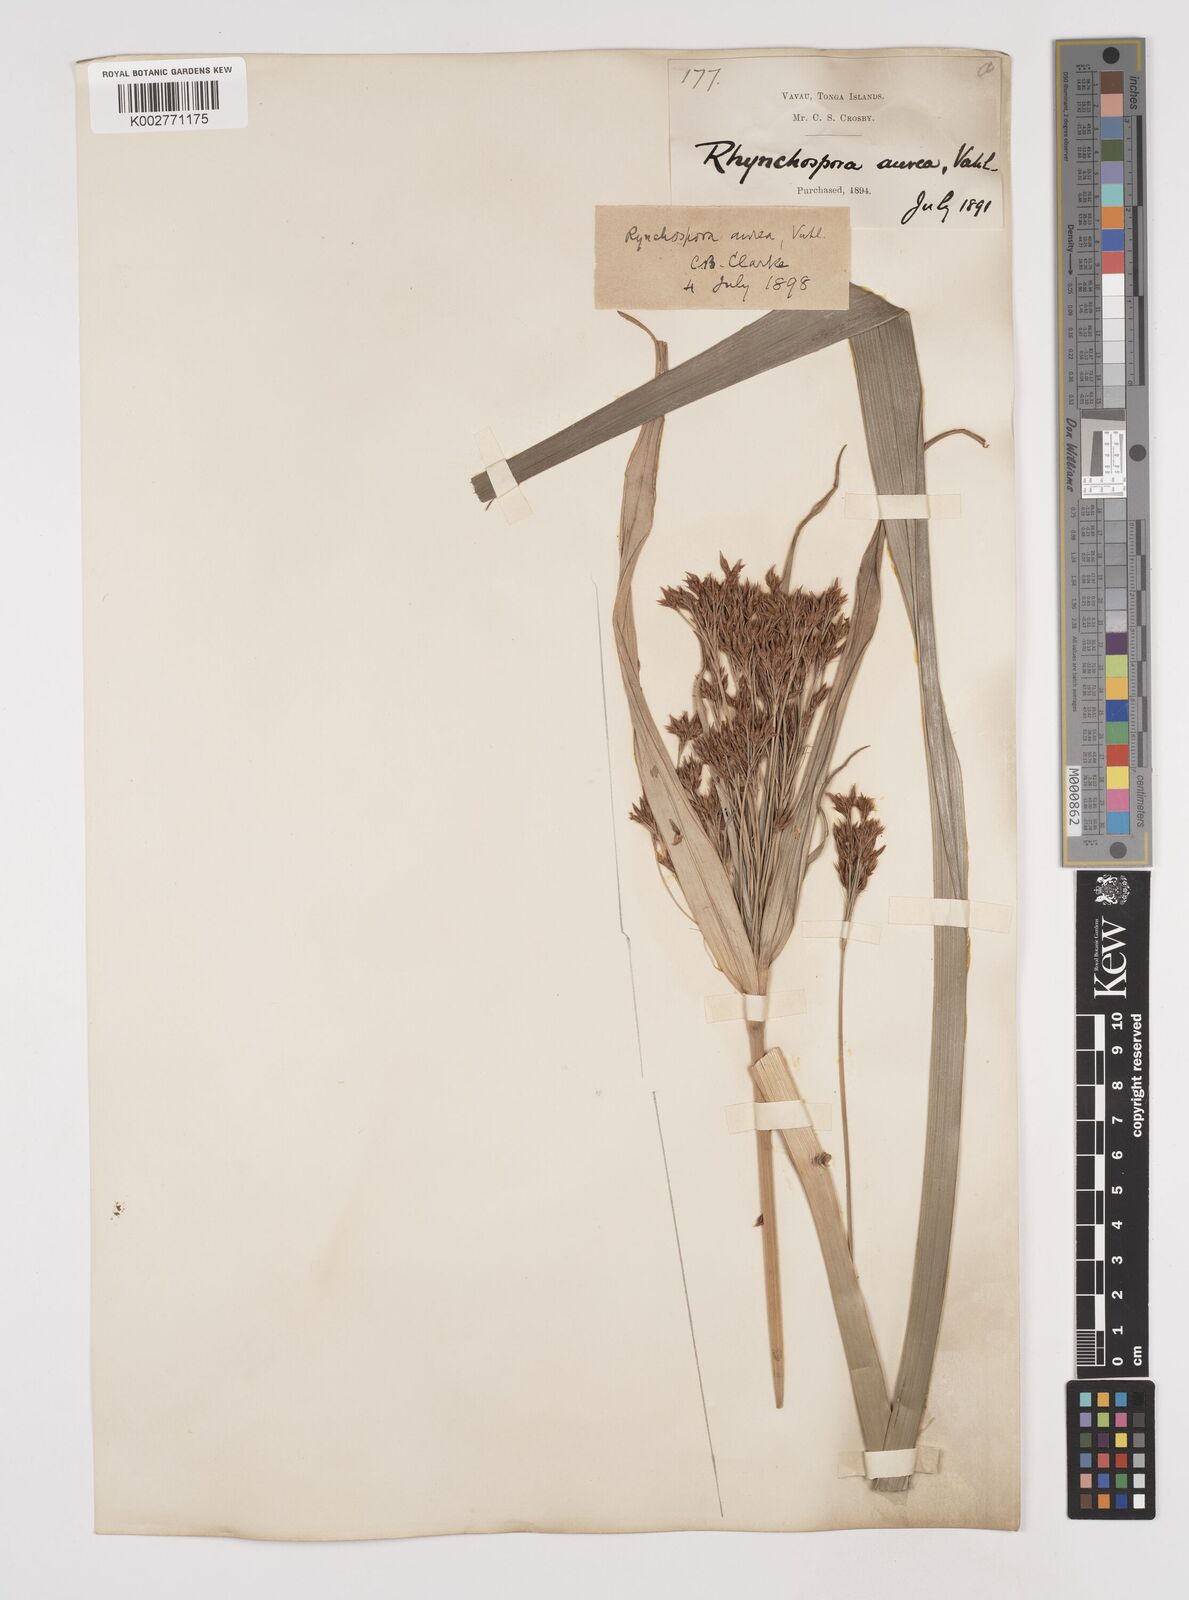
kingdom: Plantae
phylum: Tracheophyta
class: Liliopsida
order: Poales
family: Cyperaceae
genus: Rhynchospora
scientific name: Rhynchospora corymbosa
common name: Golden beak sedge
